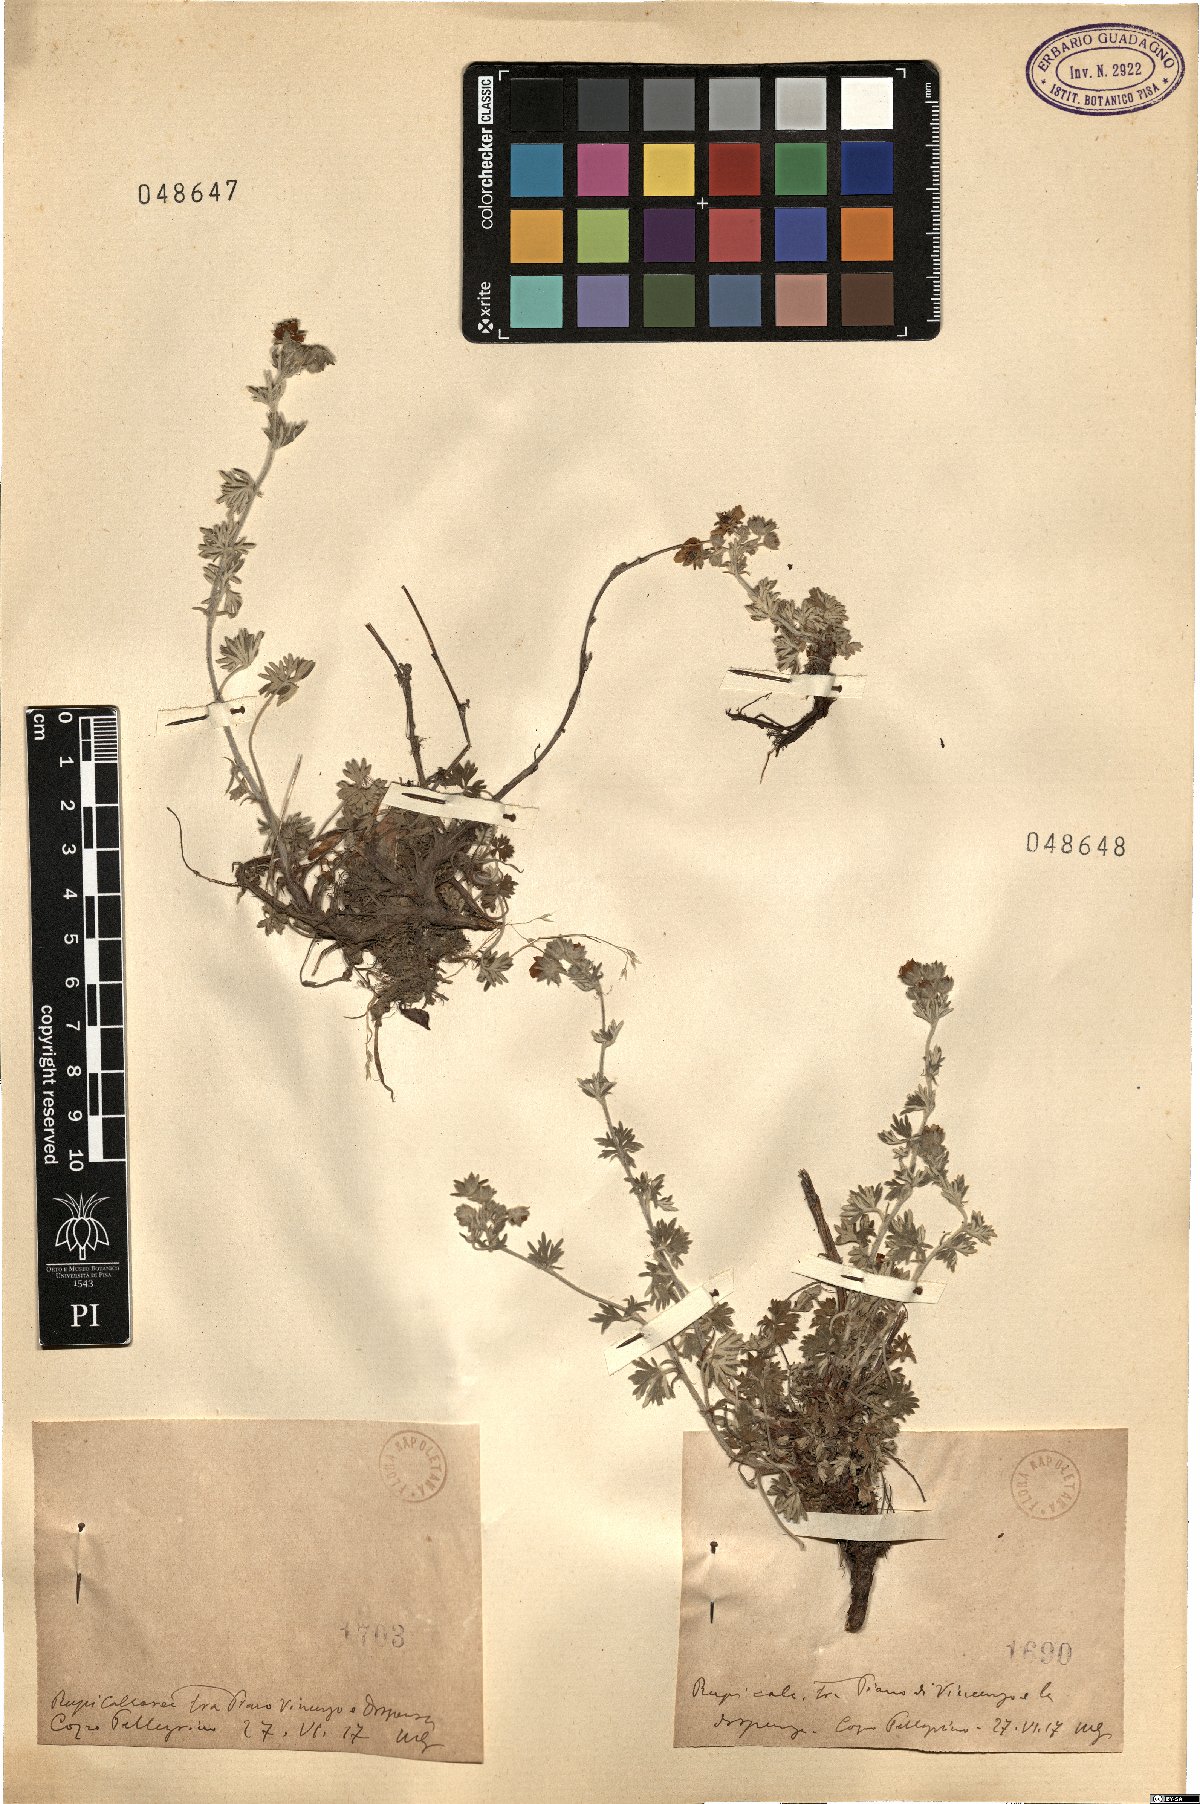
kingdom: Plantae
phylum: Tracheophyta
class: Magnoliopsida
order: Rosales
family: Rosaceae
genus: Potentilla
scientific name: Potentilla
